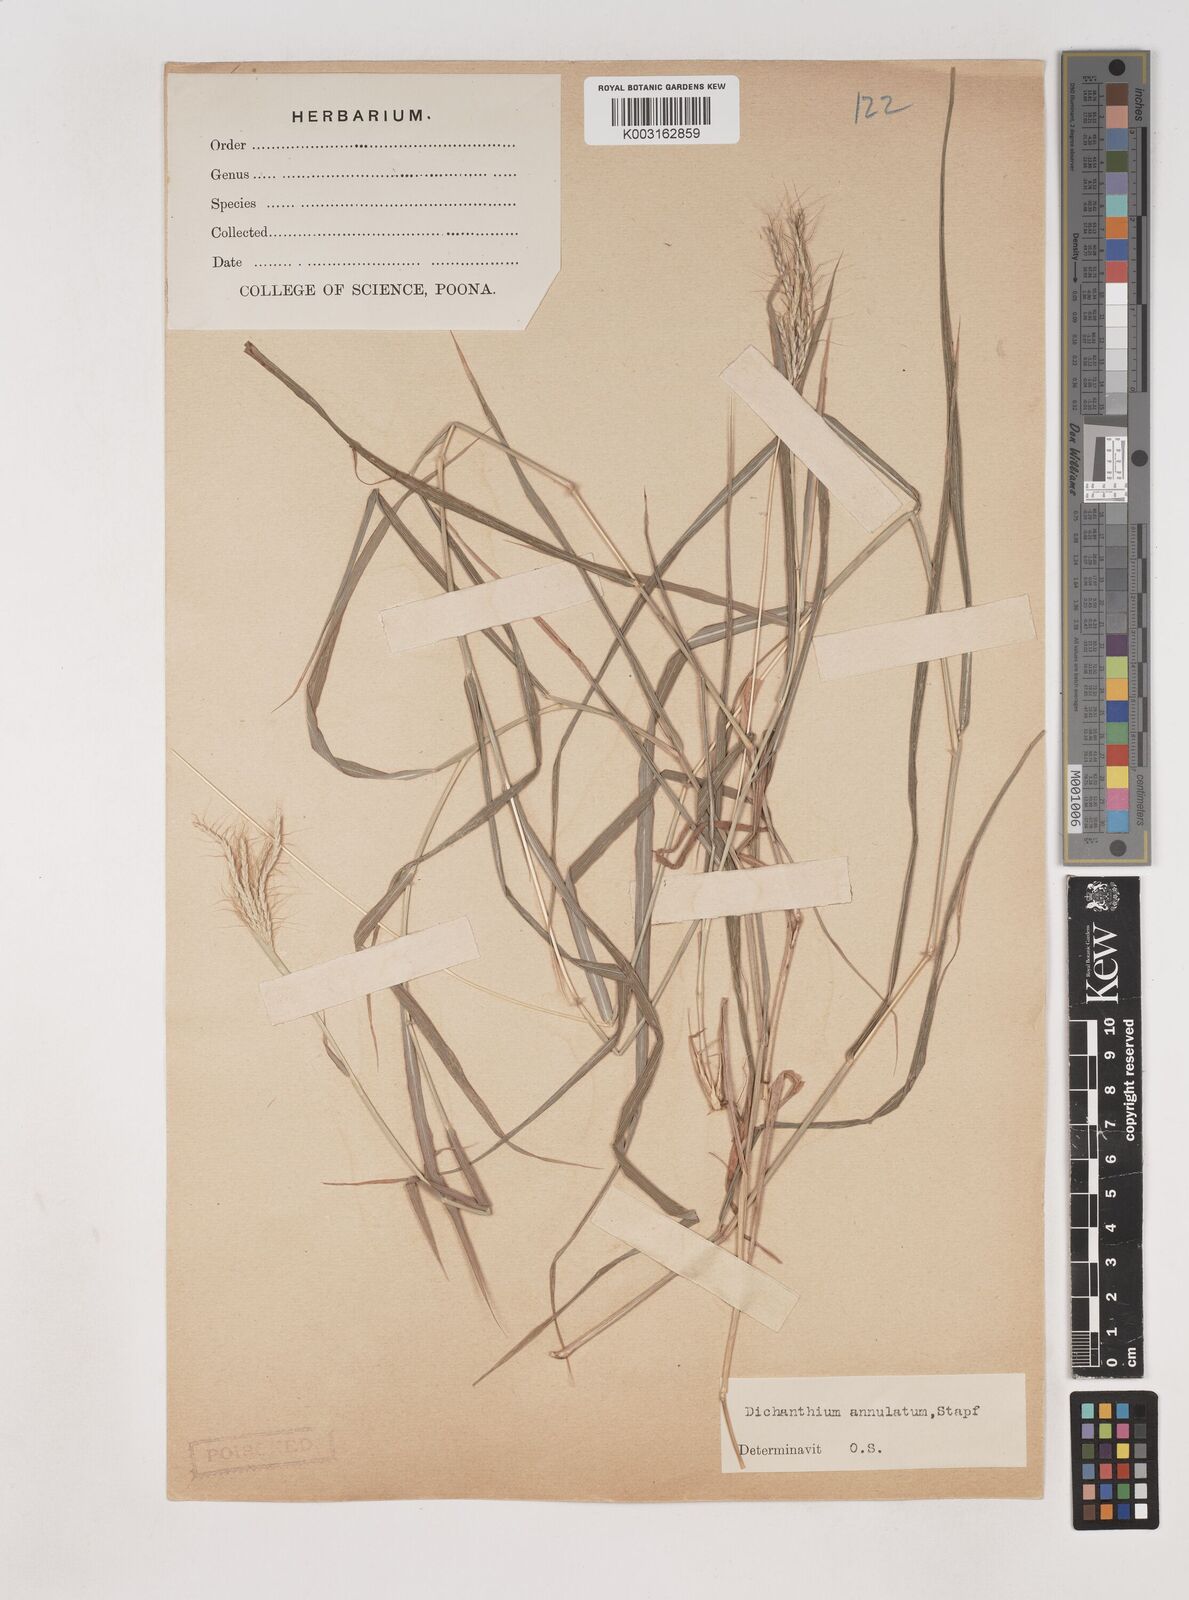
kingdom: Plantae
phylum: Tracheophyta
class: Liliopsida
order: Poales
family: Poaceae
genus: Dichanthium
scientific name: Dichanthium annulatum
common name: Kleberg's bluestem
